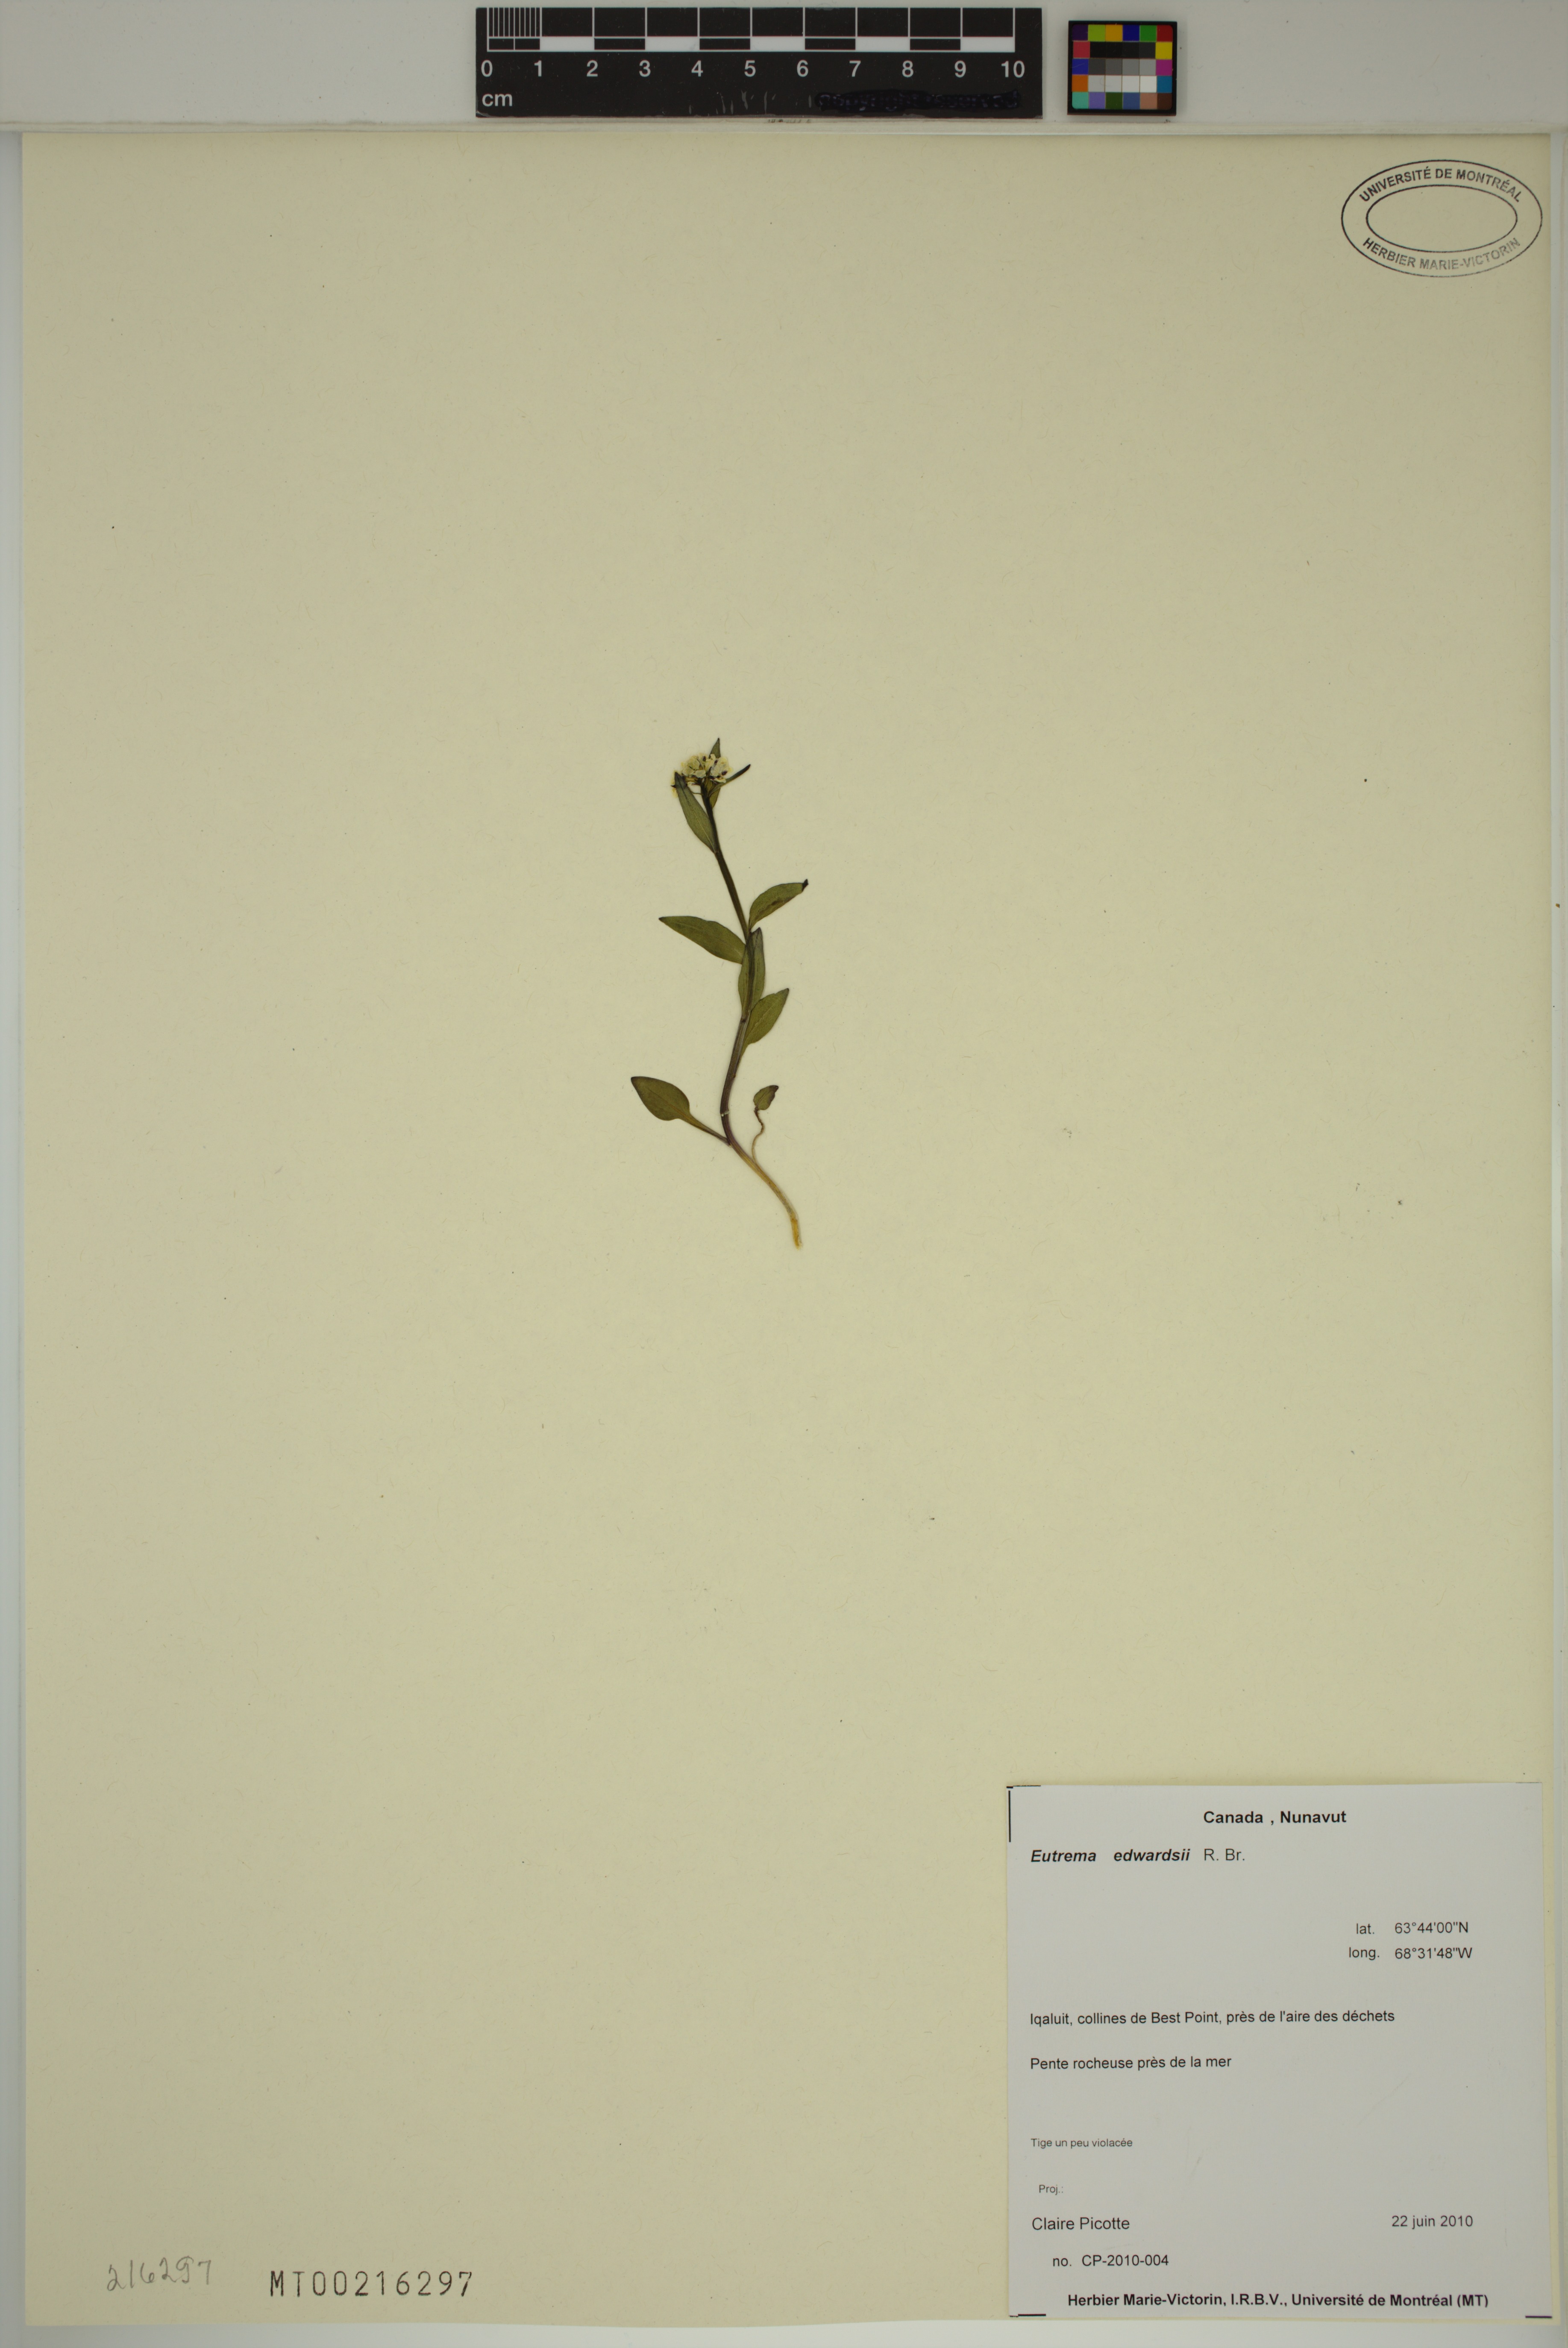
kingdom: Plantae
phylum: Tracheophyta
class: Magnoliopsida
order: Brassicales
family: Brassicaceae
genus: Eutrema
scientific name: Eutrema edwardsii
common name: Penland alpine fen mustard
